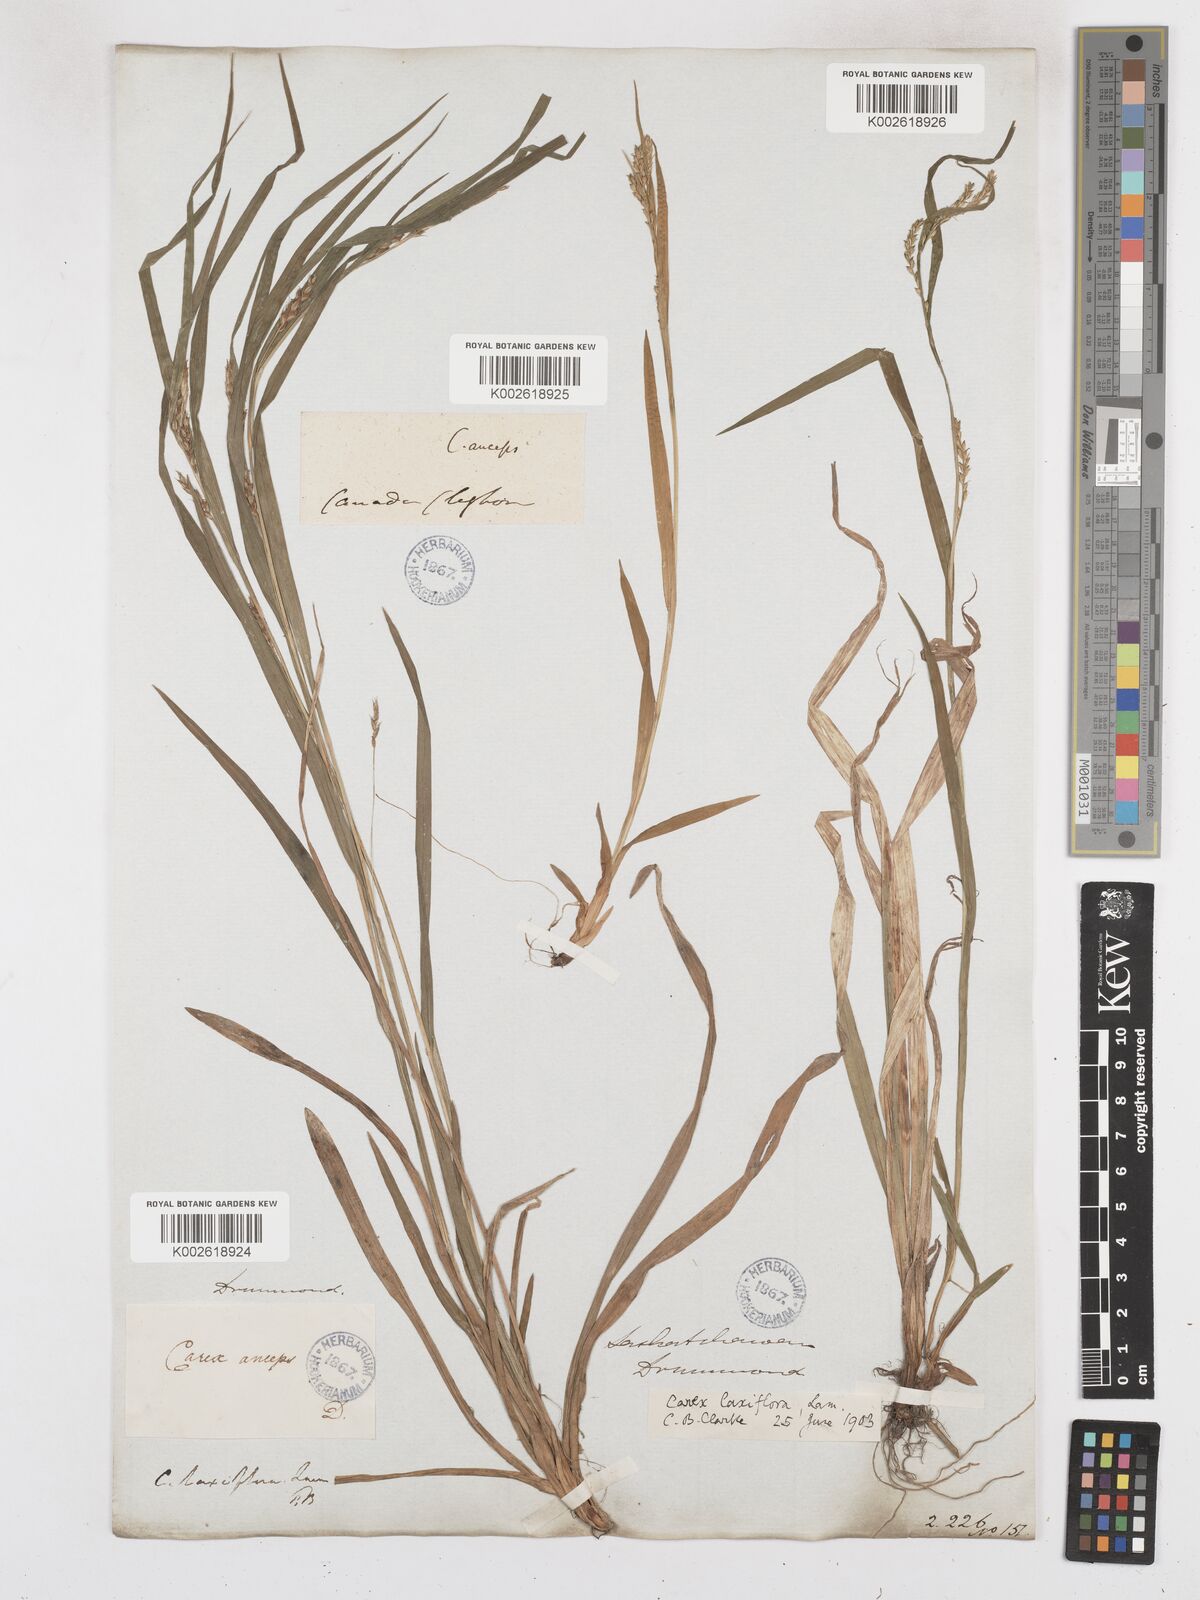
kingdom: Plantae
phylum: Tracheophyta
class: Liliopsida
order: Poales
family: Cyperaceae
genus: Carex
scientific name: Carex laxiflora
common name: Beech wood sedge
